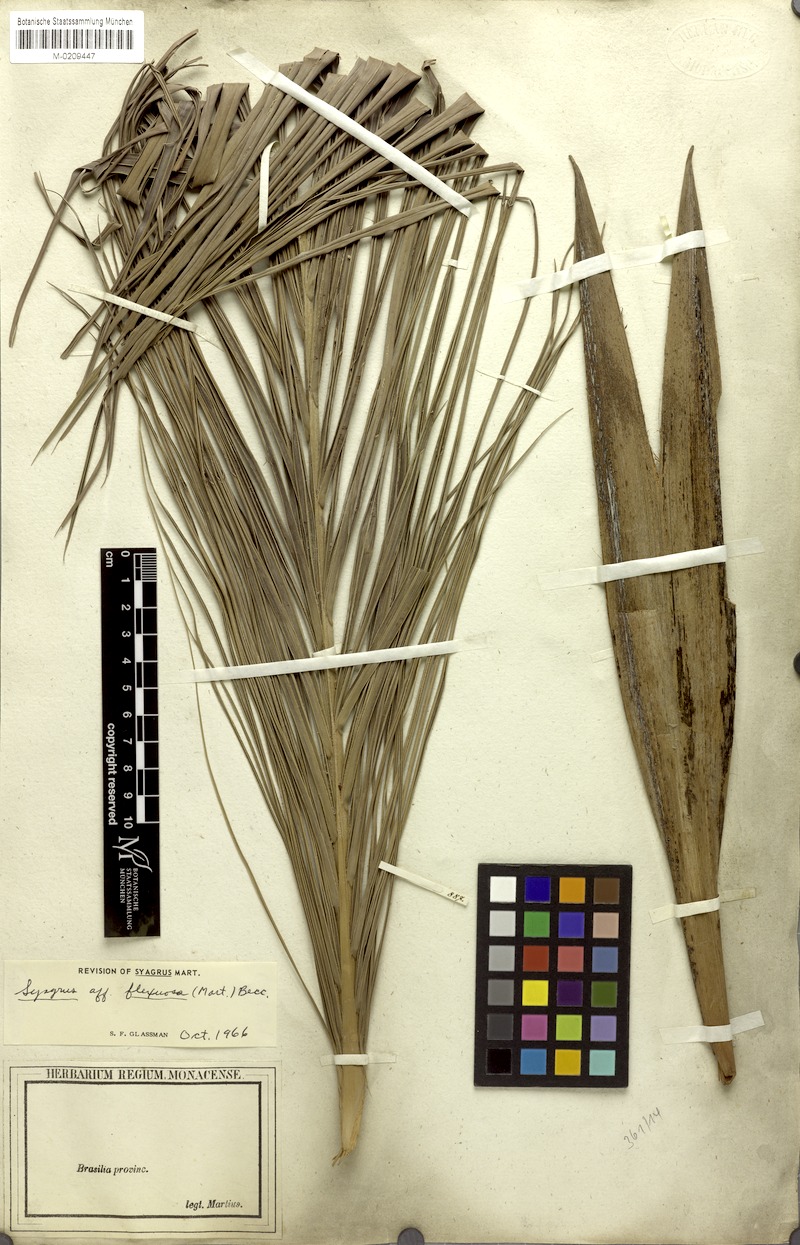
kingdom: Plantae
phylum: Tracheophyta
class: Liliopsida
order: Arecales
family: Arecaceae
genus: Syagrus
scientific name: Syagrus flexuosa
